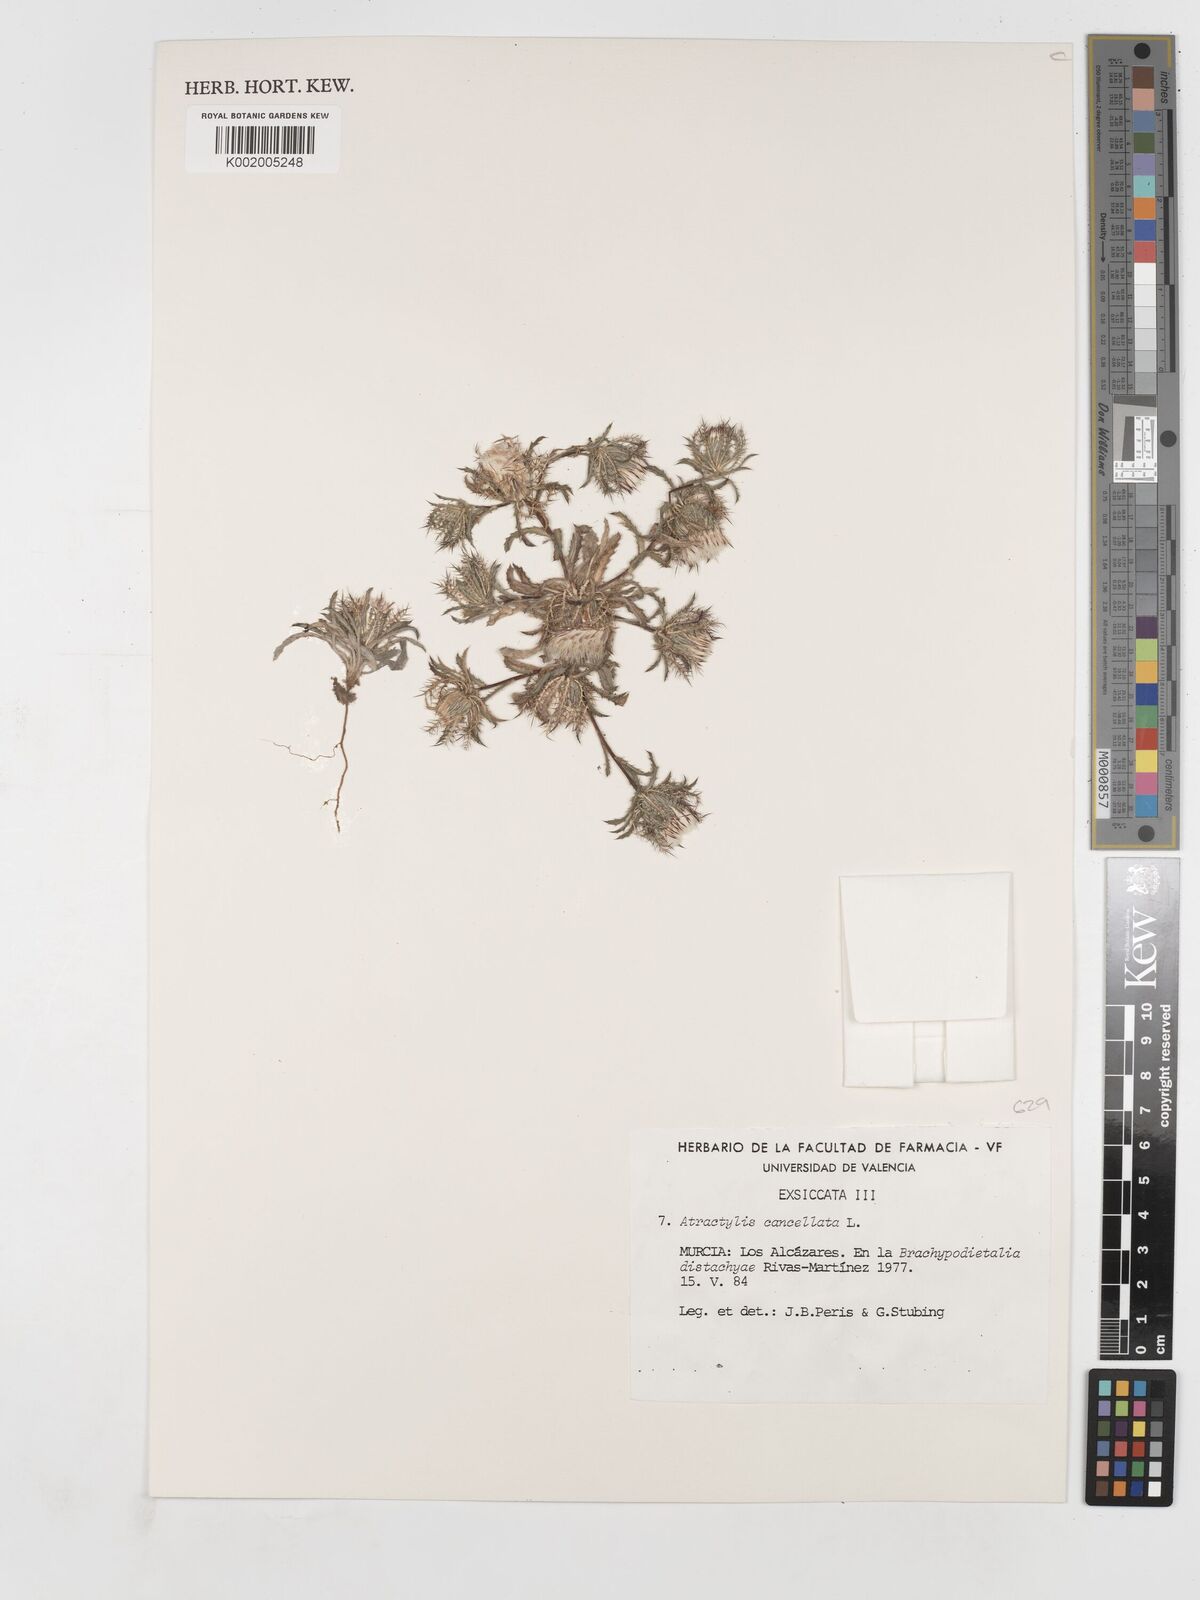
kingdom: Plantae
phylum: Tracheophyta
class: Magnoliopsida
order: Asterales
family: Asteraceae
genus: Atractylis
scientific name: Atractylis cancellata
